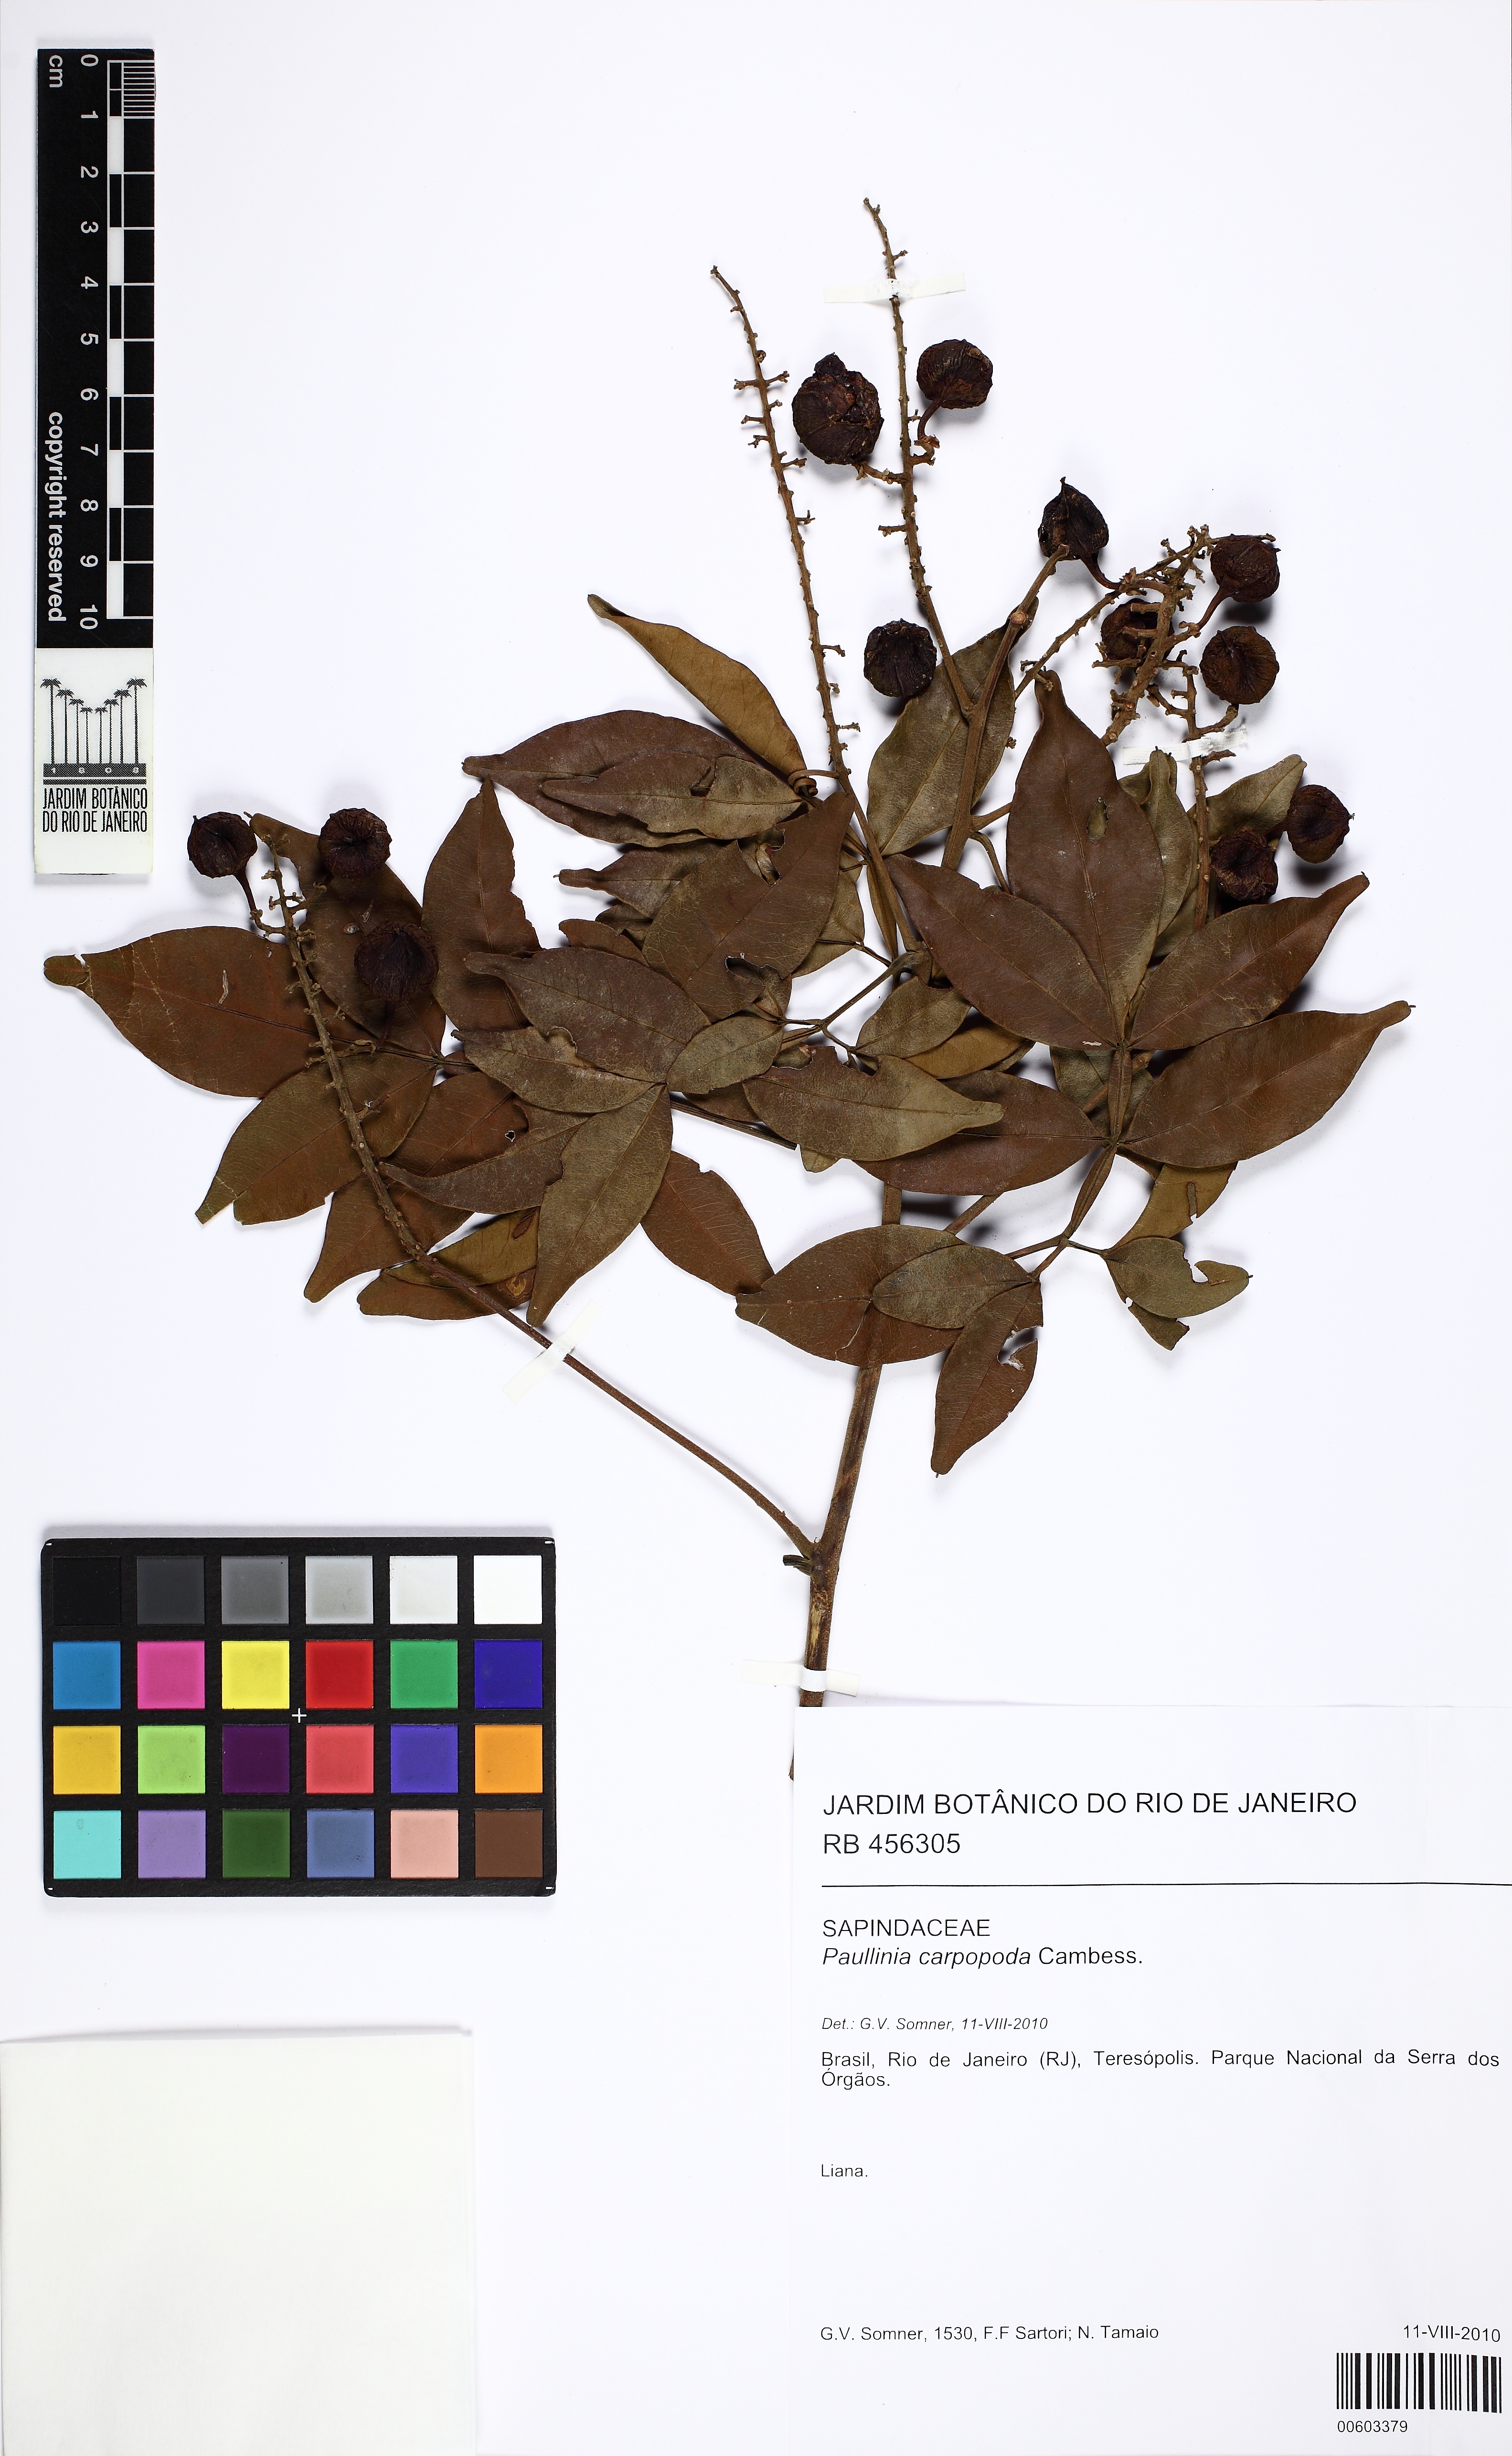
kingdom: Plantae
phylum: Tracheophyta
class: Magnoliopsida
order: Sapindales
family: Sapindaceae
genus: Paullinia
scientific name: Paullinia carpopodea
